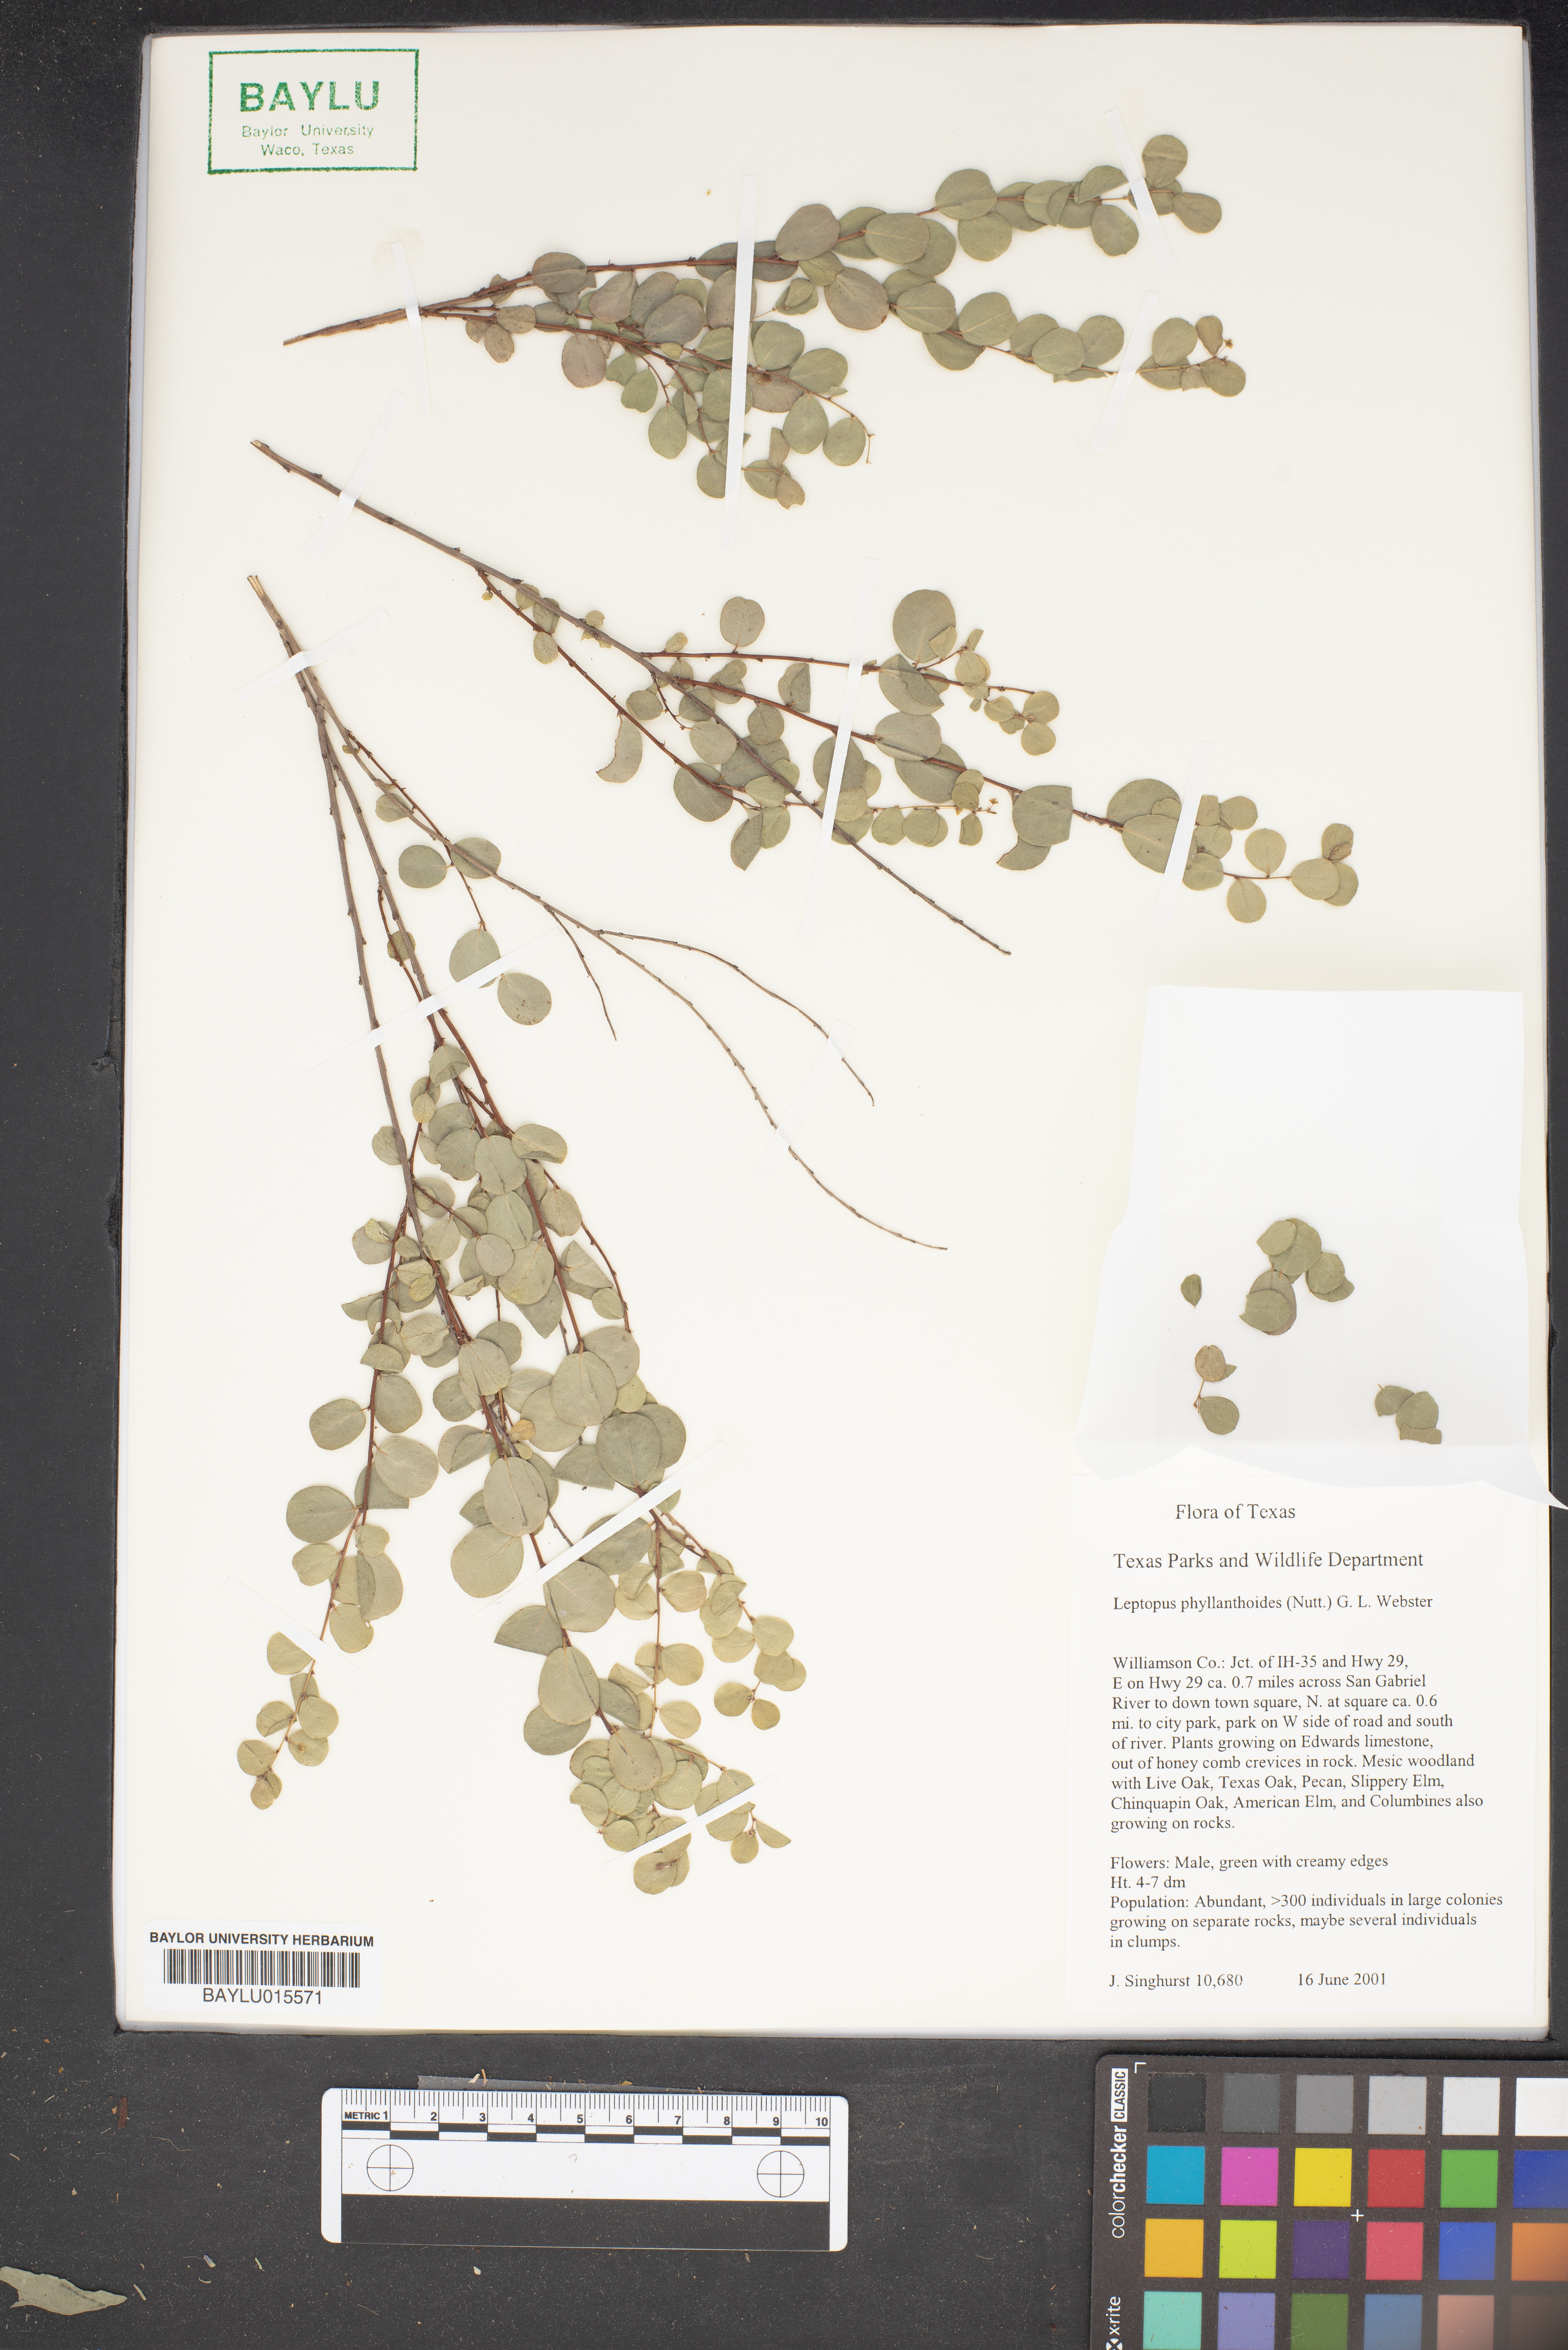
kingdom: Plantae
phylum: Tracheophyta
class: Magnoliopsida
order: Malpighiales
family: Phyllanthaceae
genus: Phyllanthopsis
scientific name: Phyllanthopsis phyllanthoides
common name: Missouri maidenbush
